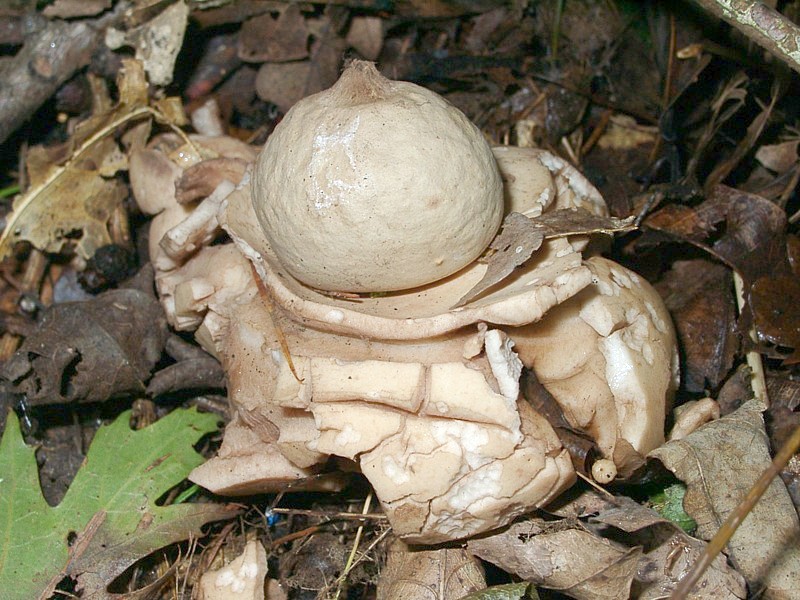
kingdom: Fungi
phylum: Basidiomycota
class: Agaricomycetes
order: Geastrales
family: Geastraceae
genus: Geastrum
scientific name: Geastrum triplex
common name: Collared earthstar
